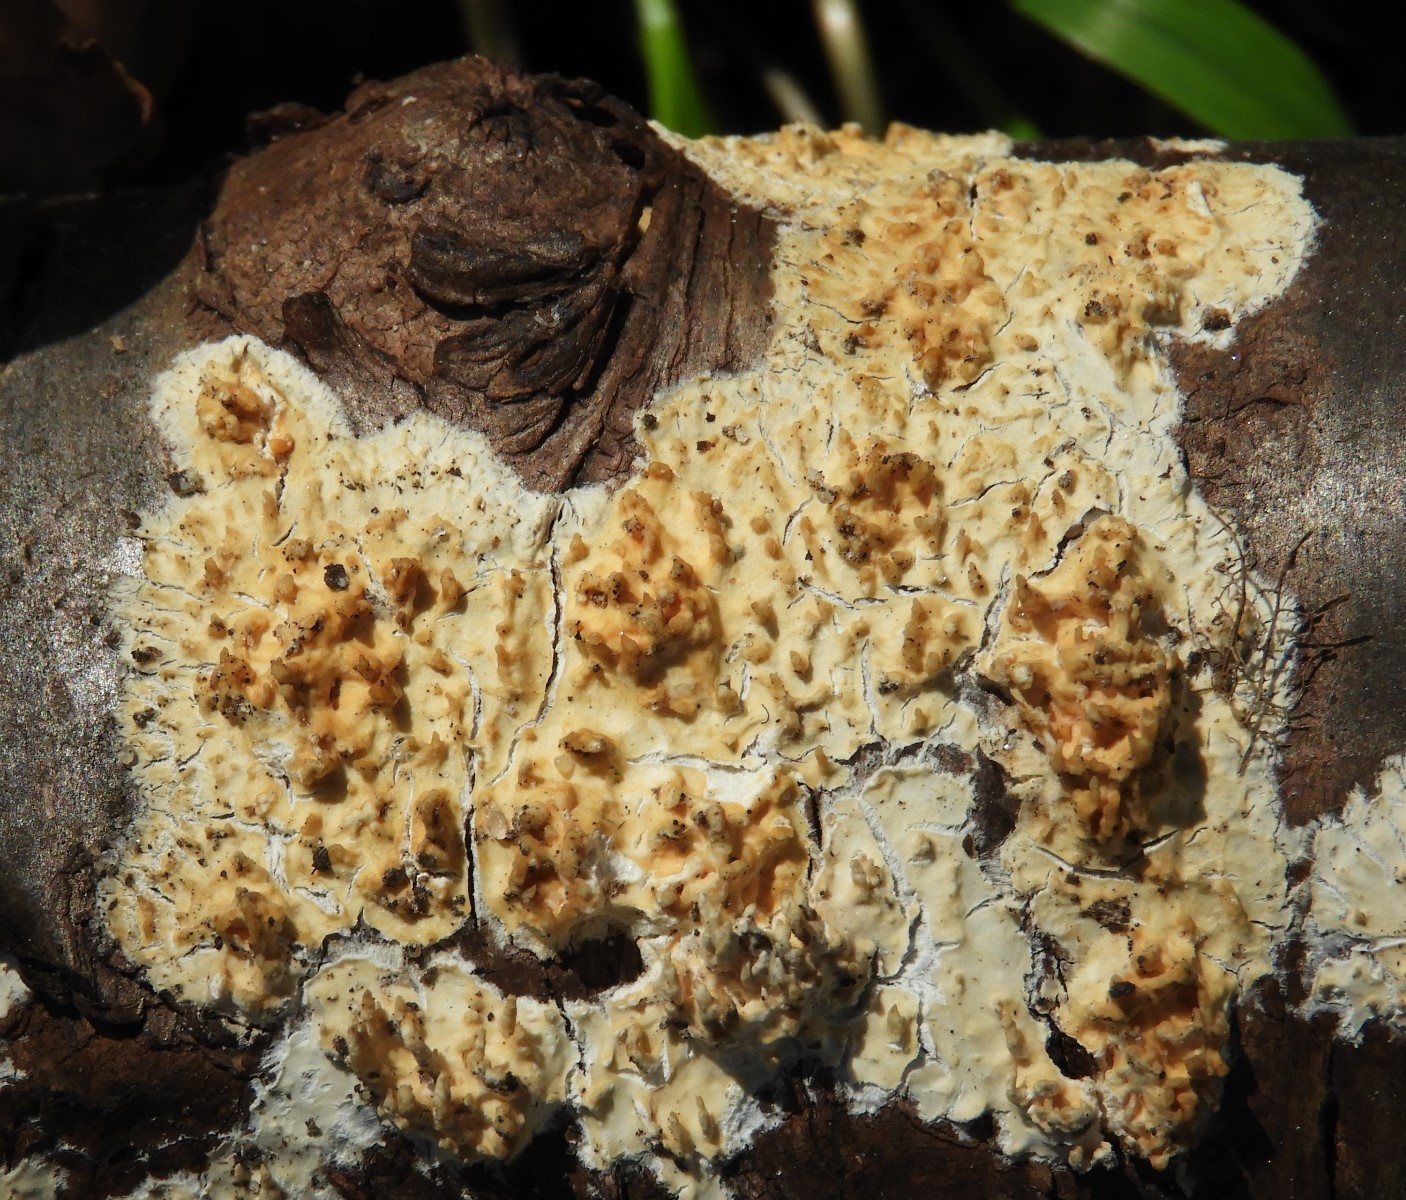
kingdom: Fungi
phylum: Basidiomycota
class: Agaricomycetes
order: Hymenochaetales
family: Schizoporaceae
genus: Xylodon
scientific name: Xylodon radula
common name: grovtandet kalkskind
